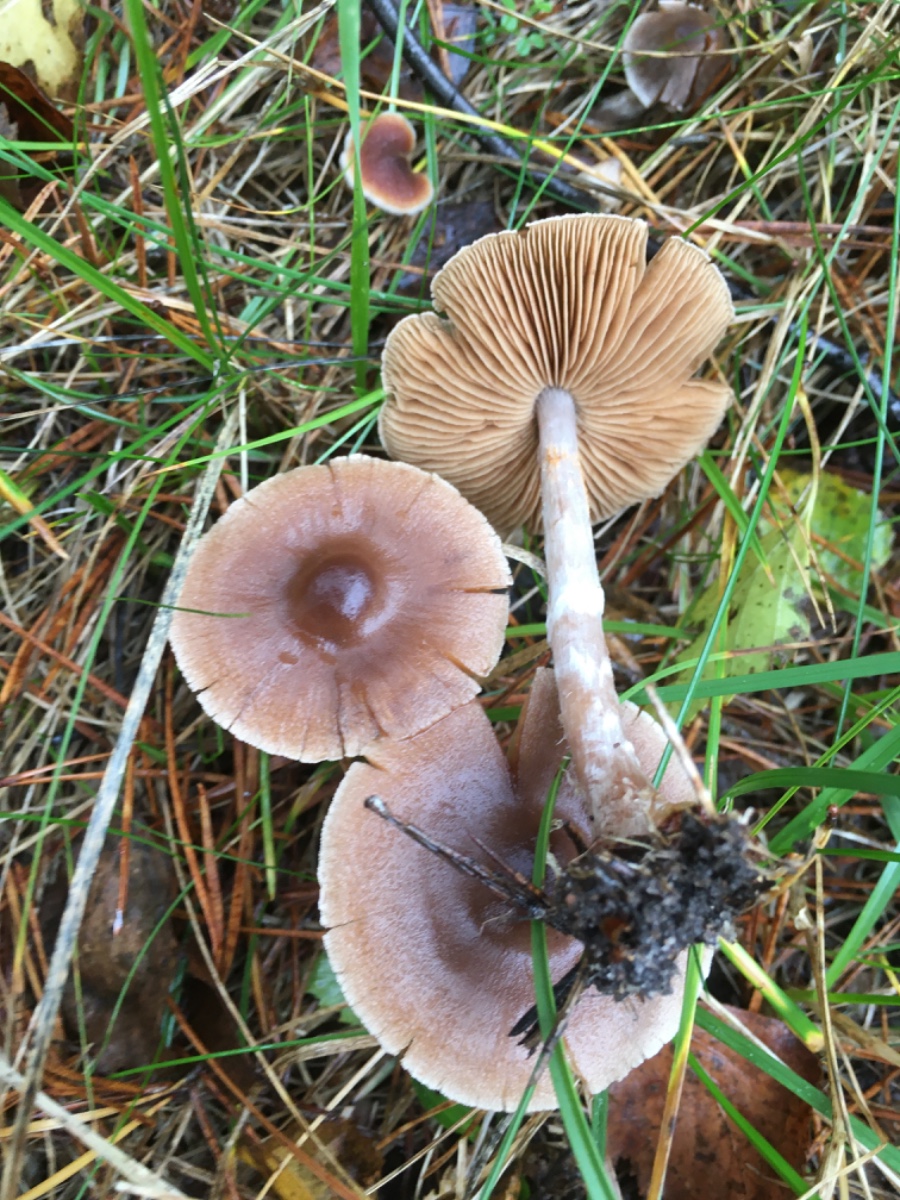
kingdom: Fungi
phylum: Basidiomycota
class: Agaricomycetes
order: Agaricales
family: Cortinariaceae
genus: Cortinarius
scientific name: Cortinarius
